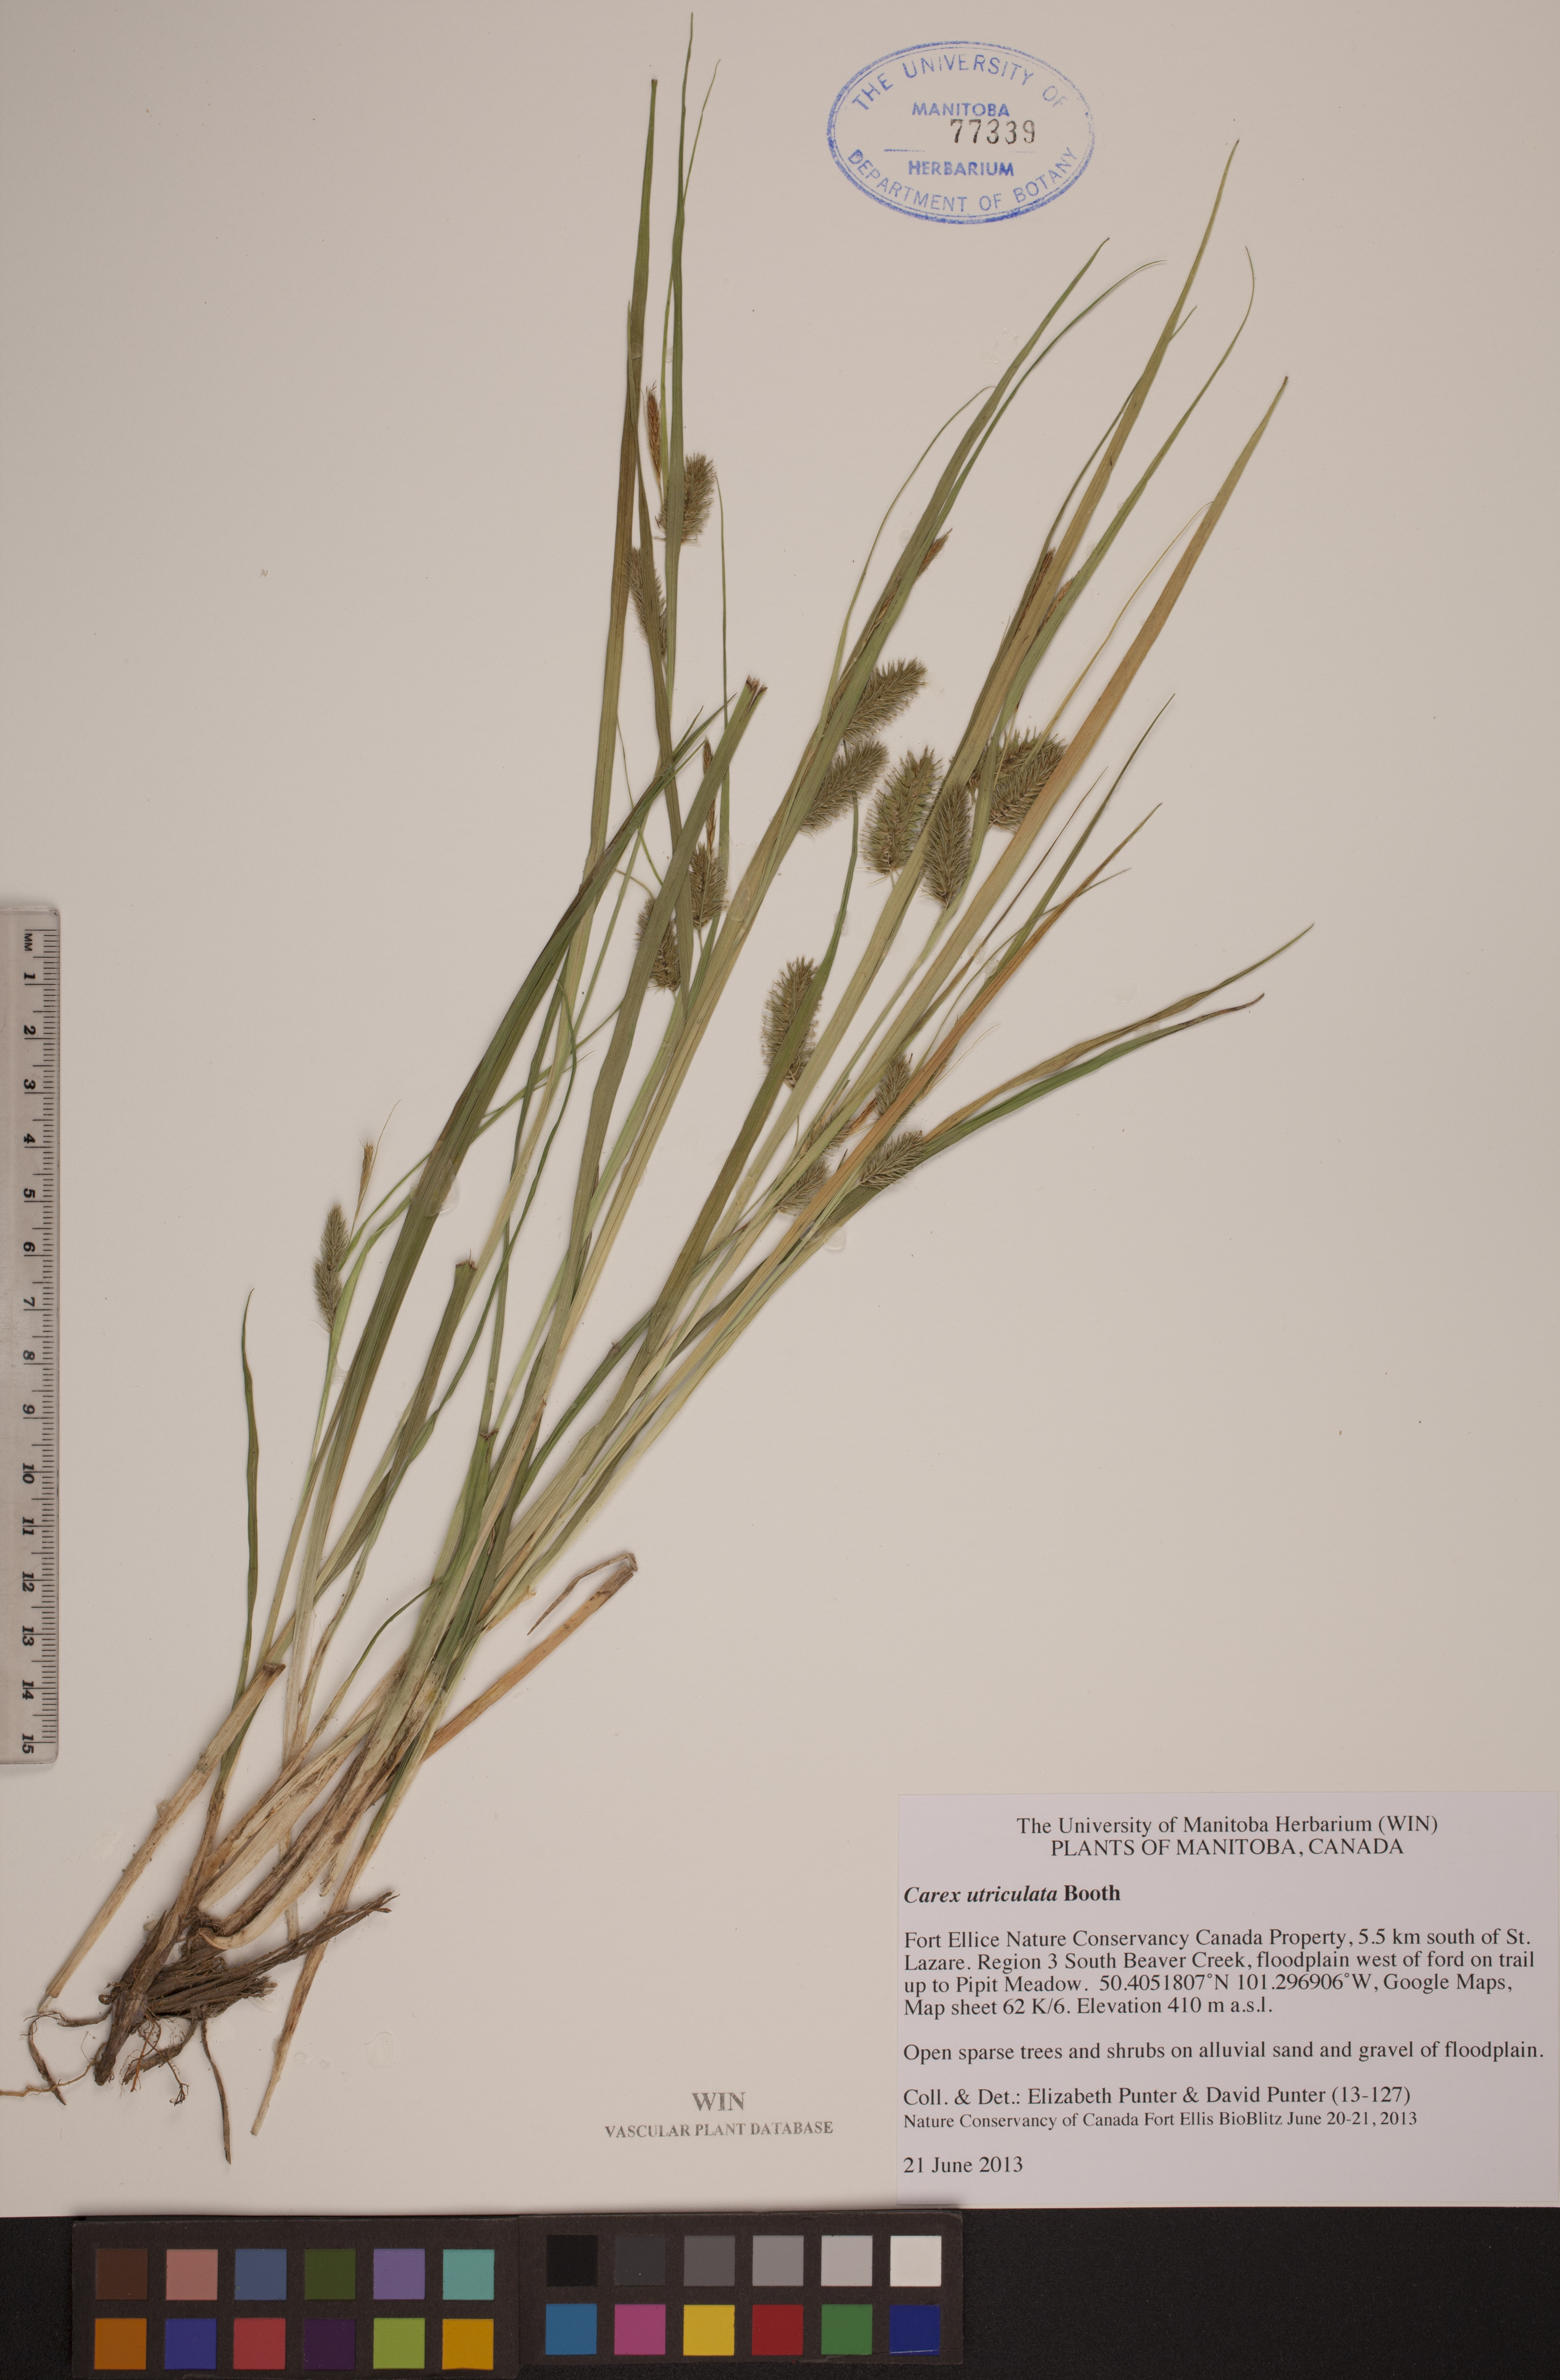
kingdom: Plantae
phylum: Tracheophyta
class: Liliopsida
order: Poales
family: Cyperaceae
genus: Carex
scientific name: Carex utriculata
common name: Beaked sedge
